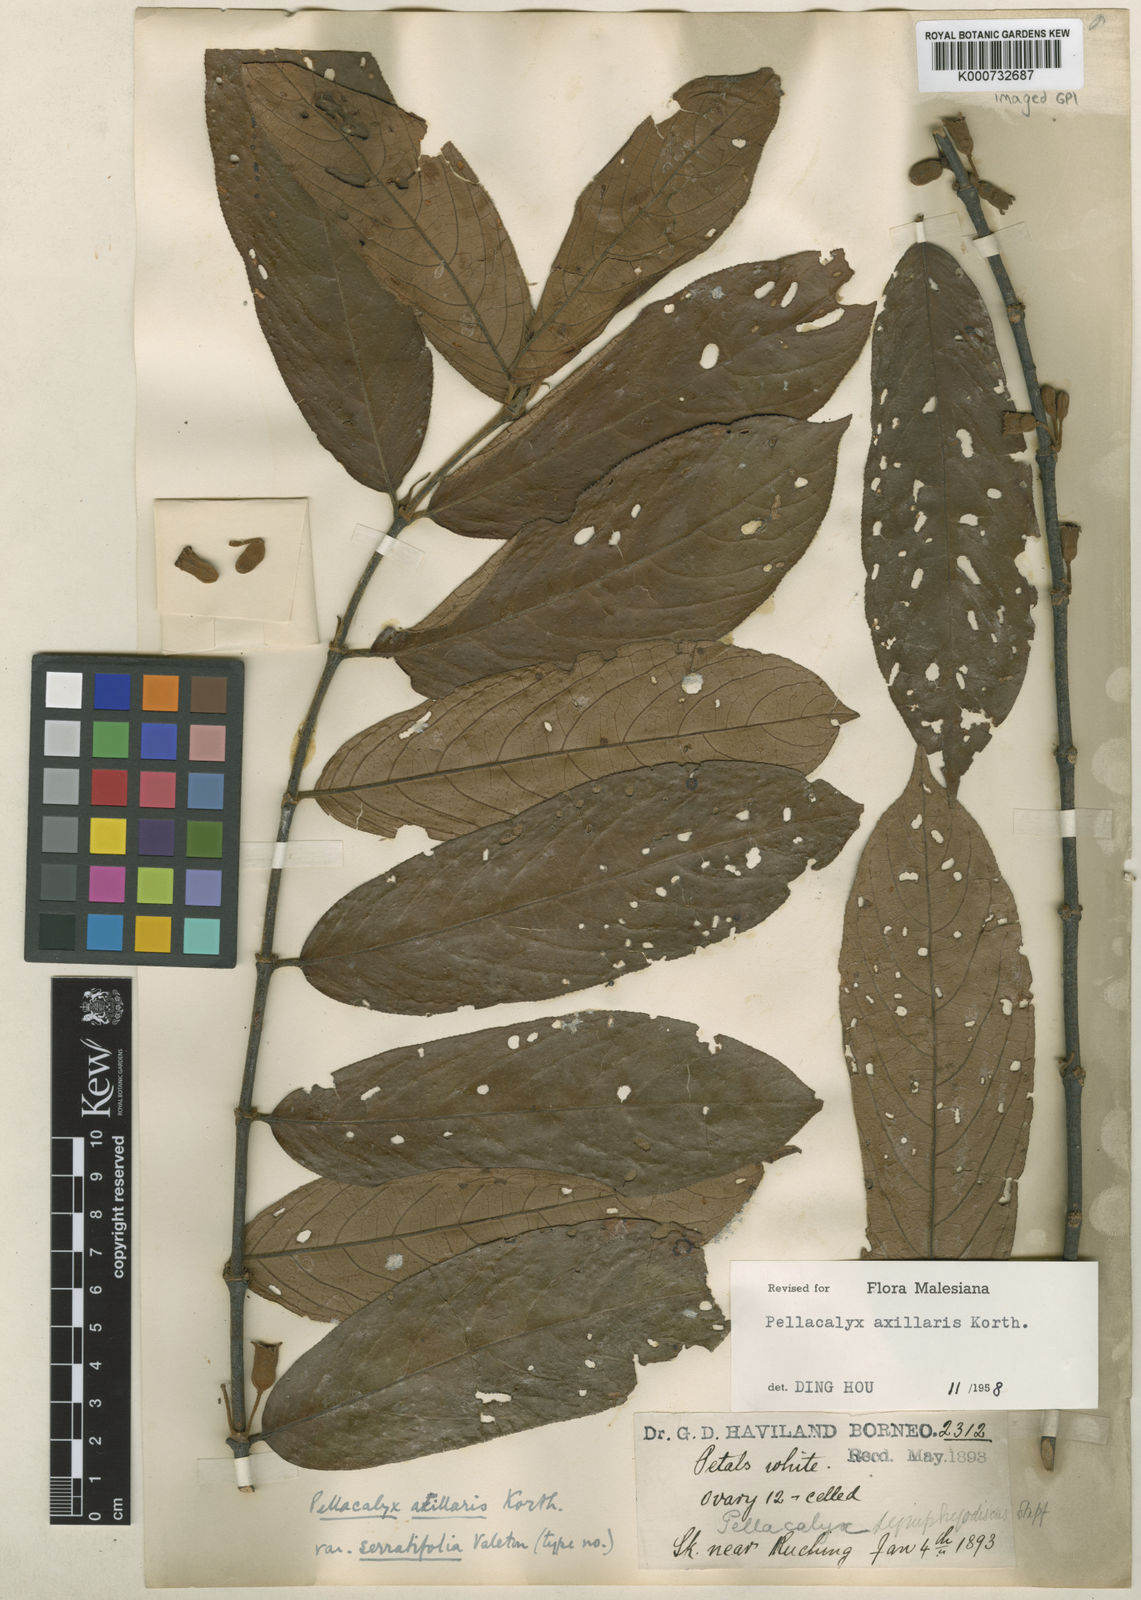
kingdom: Plantae
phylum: Tracheophyta
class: Magnoliopsida
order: Malpighiales
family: Rhizophoraceae
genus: Pellacalyx
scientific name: Pellacalyx
